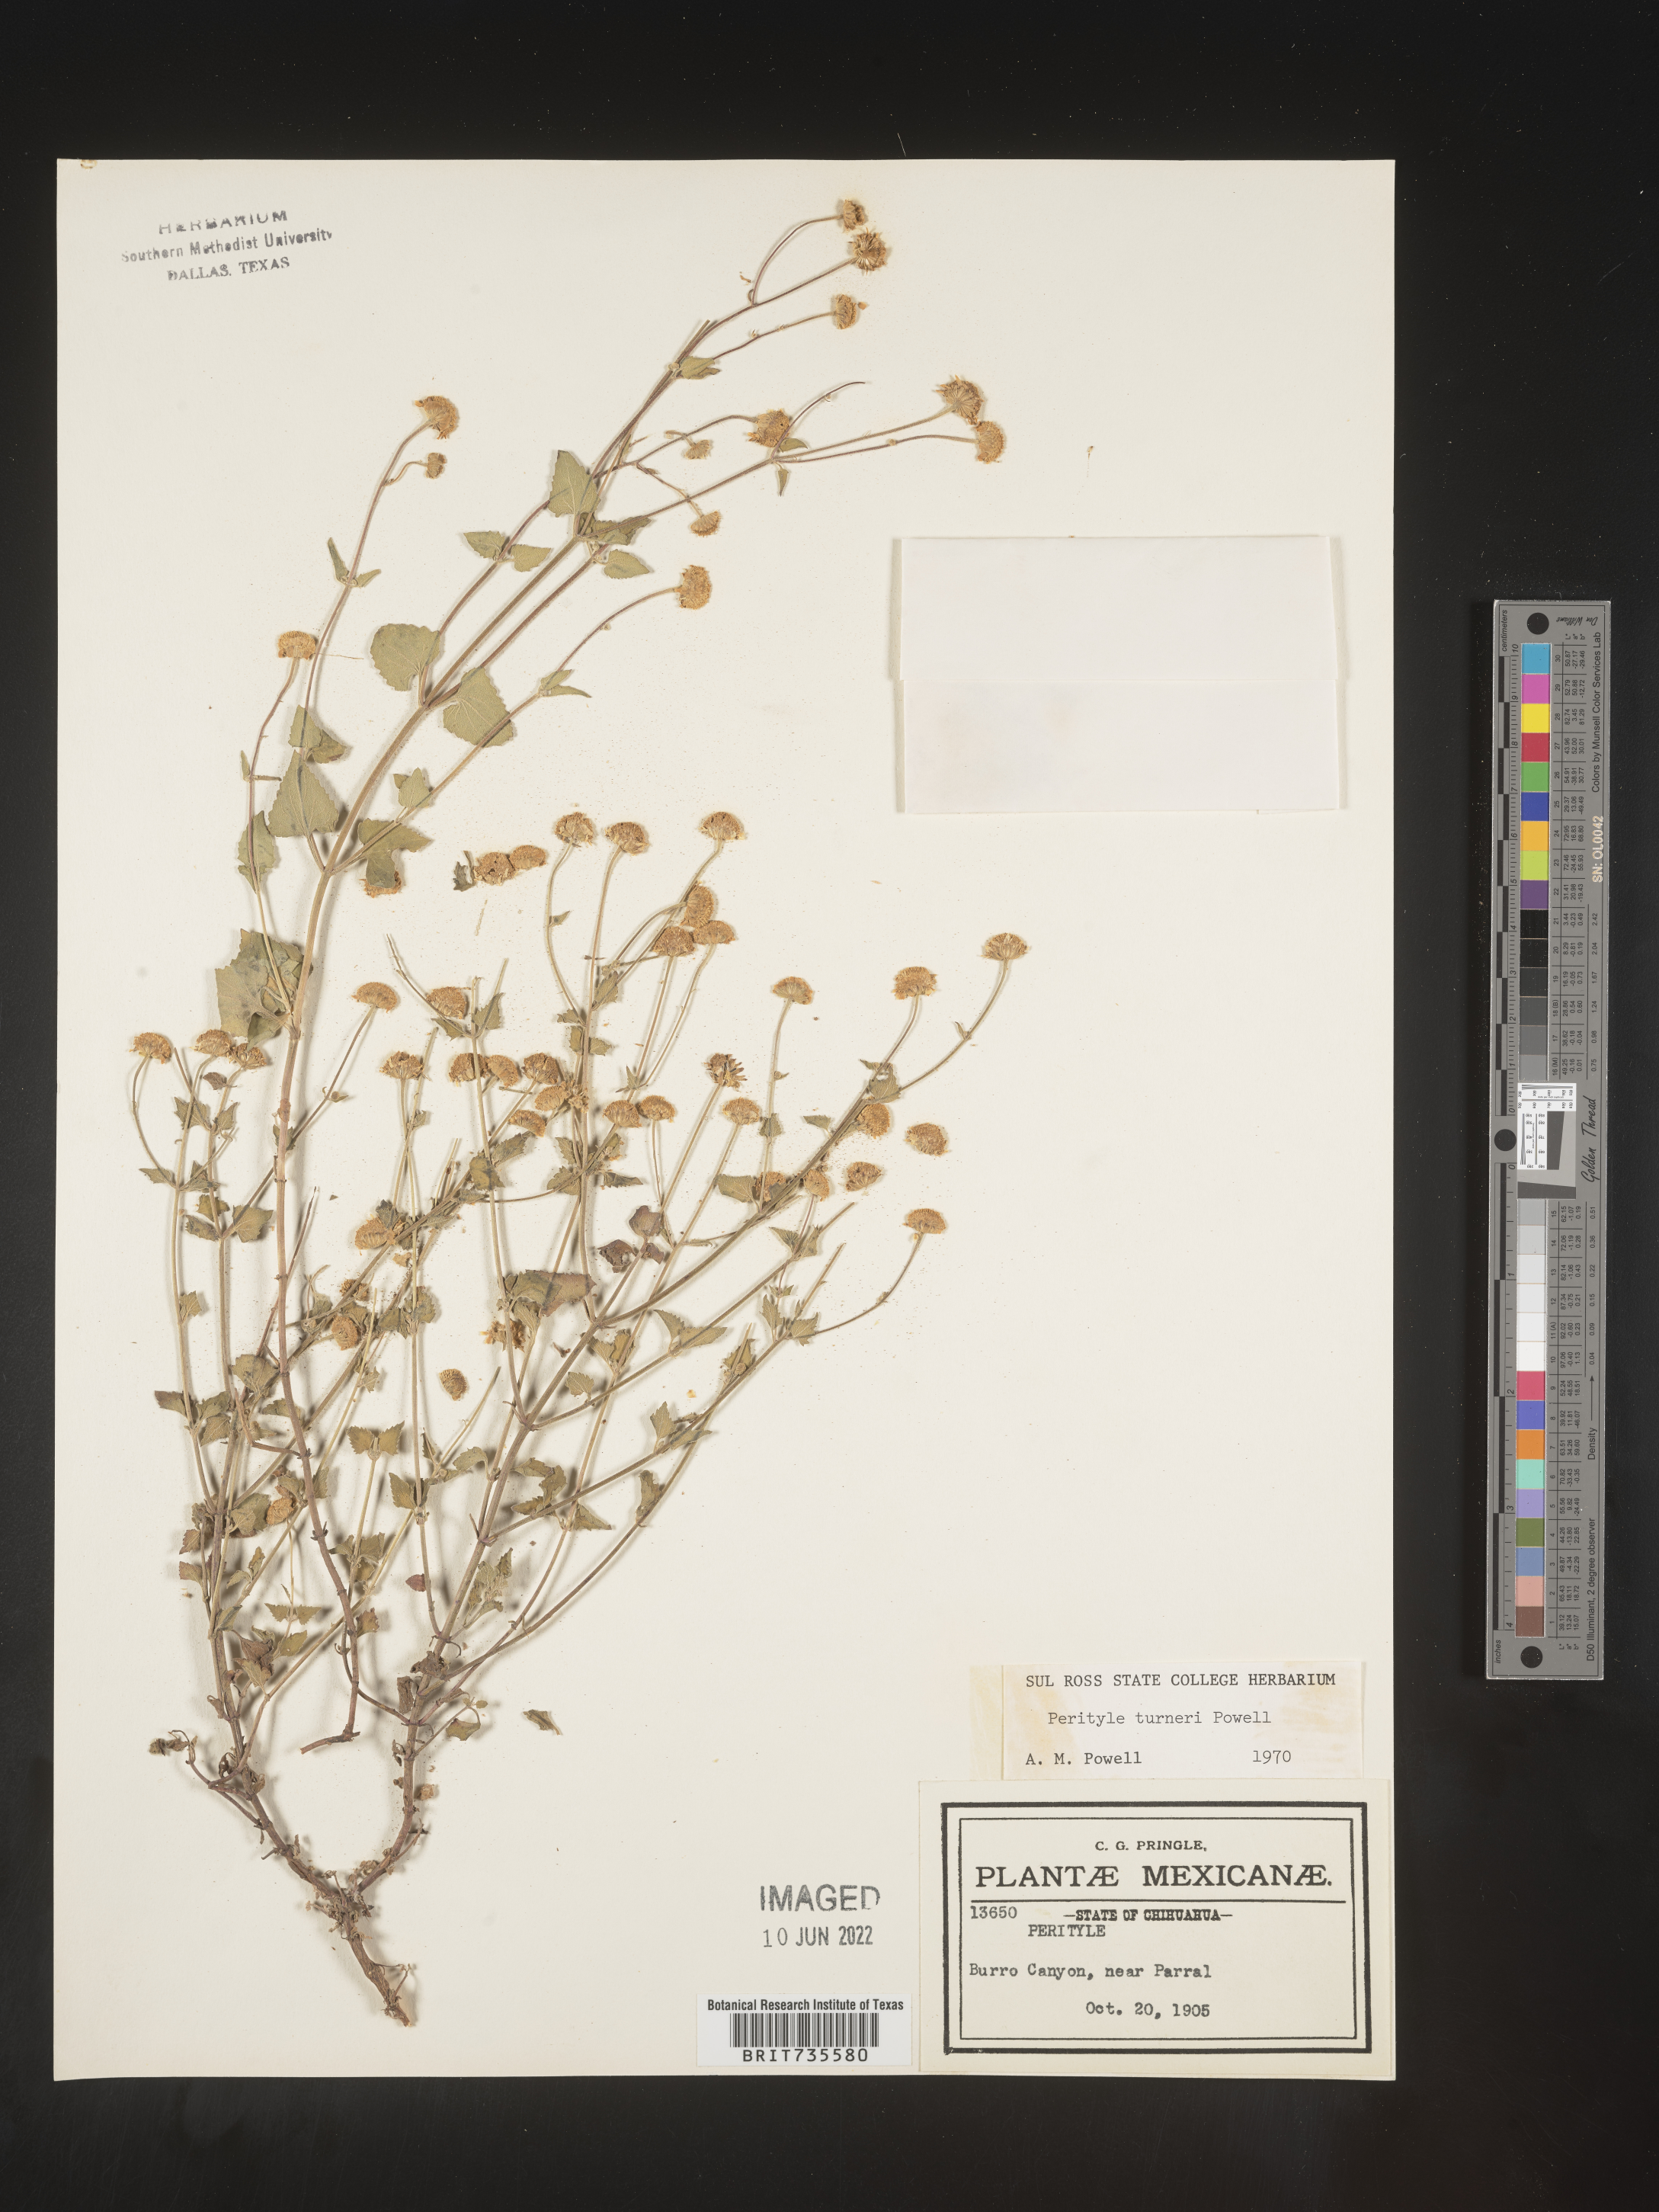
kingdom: Plantae
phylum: Tracheophyta
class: Magnoliopsida
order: Asterales
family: Asteraceae
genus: Perityle
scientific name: Perityle
